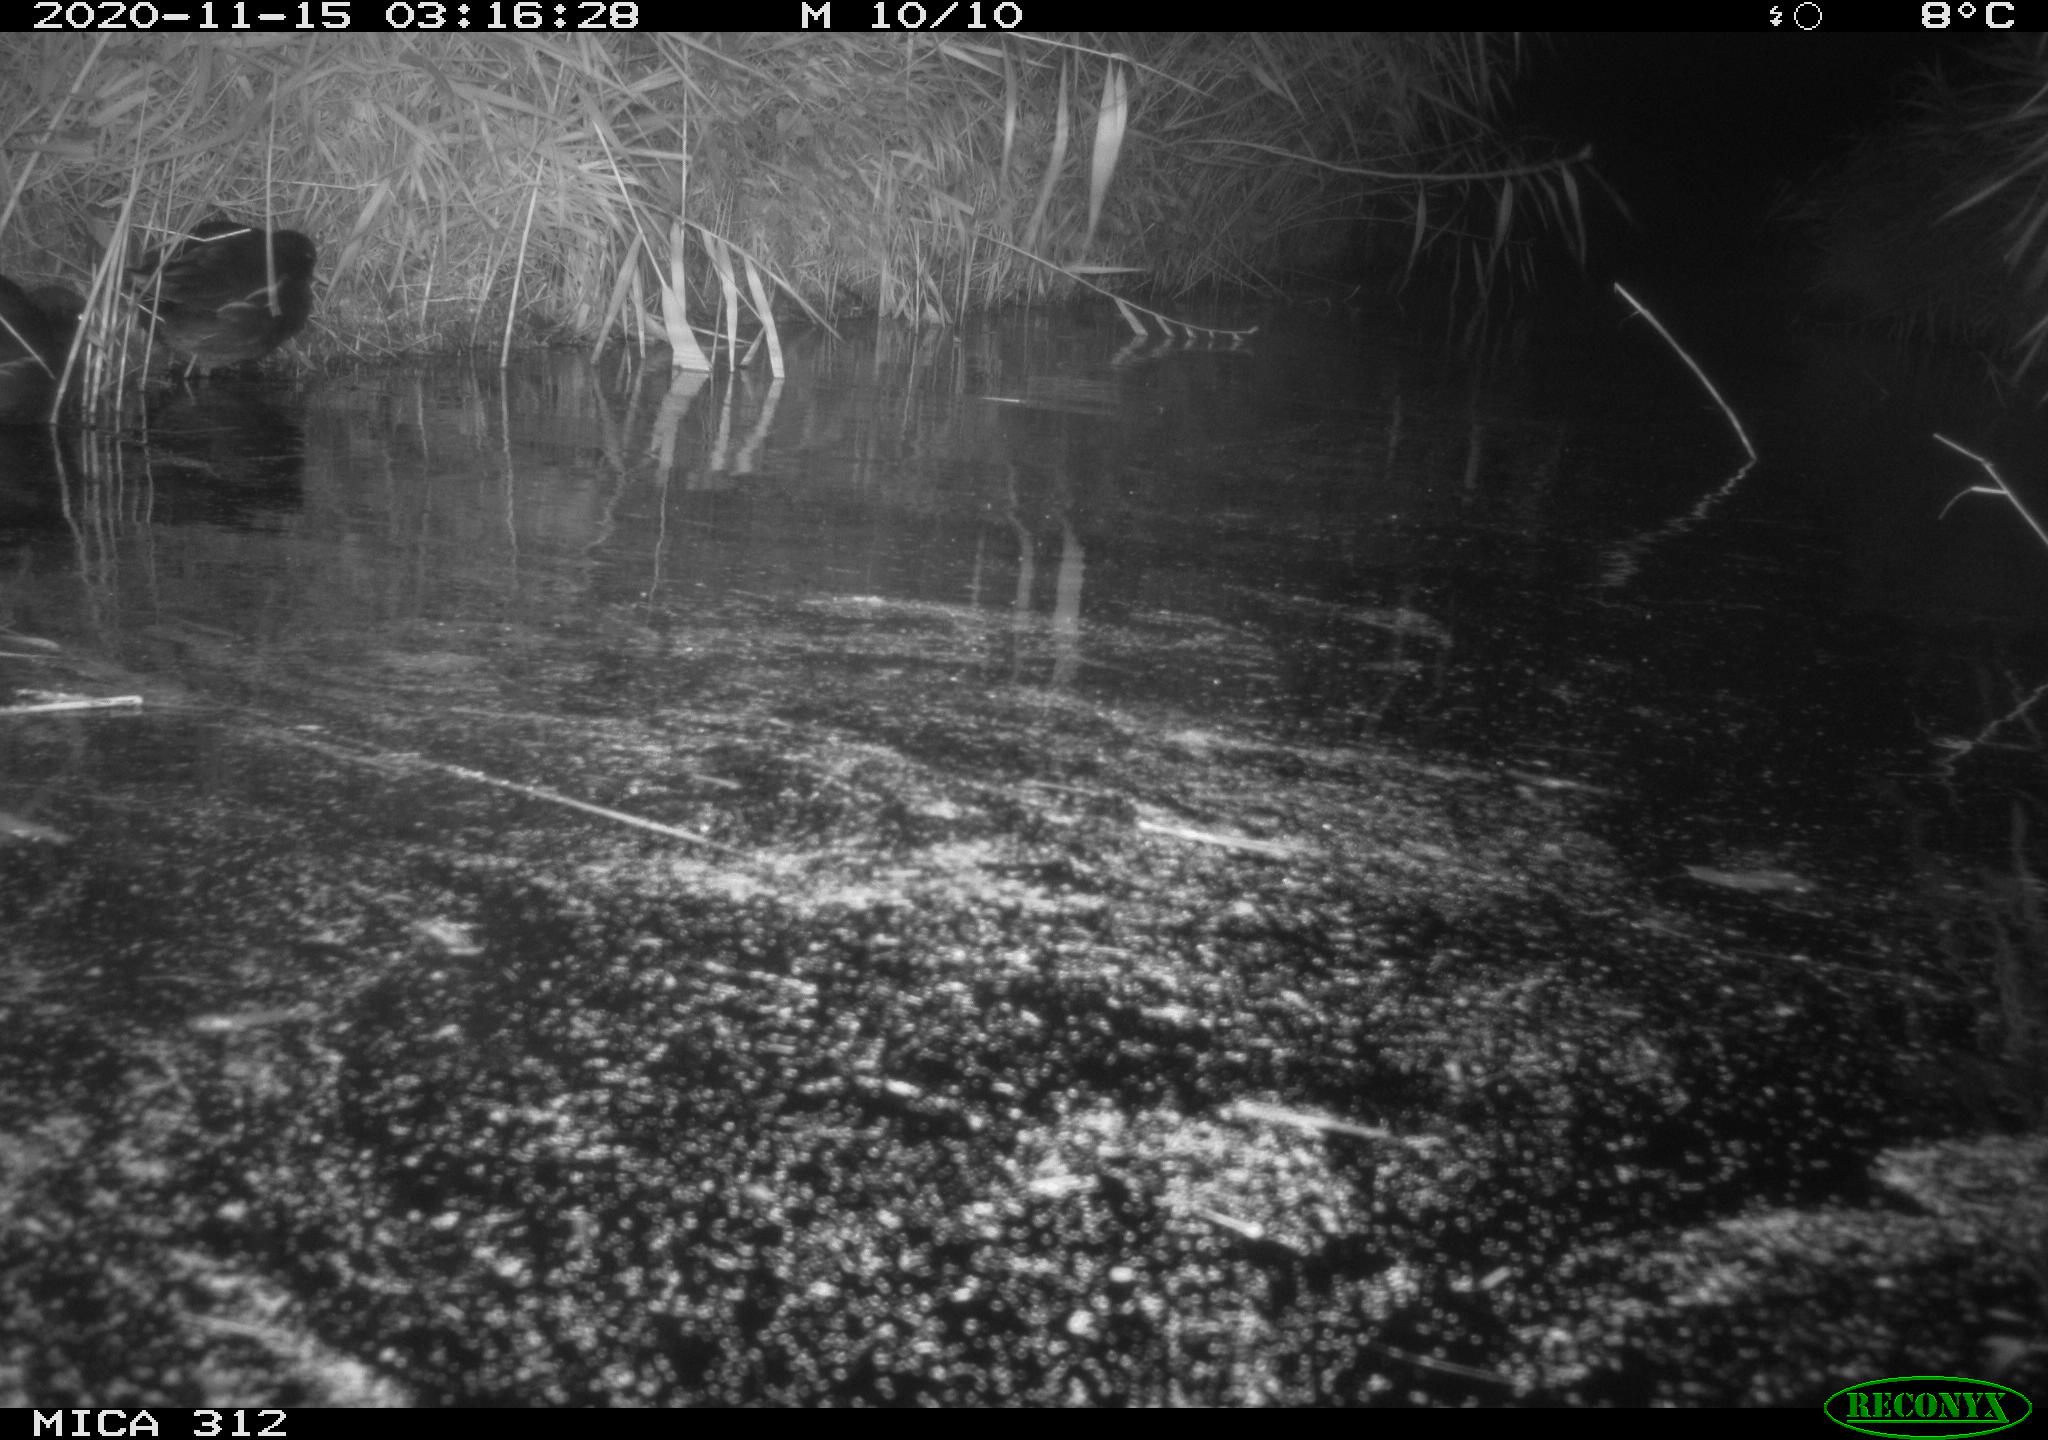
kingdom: Animalia
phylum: Chordata
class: Mammalia
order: Rodentia
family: Muridae
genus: Rattus
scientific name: Rattus norvegicus
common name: Brown rat
